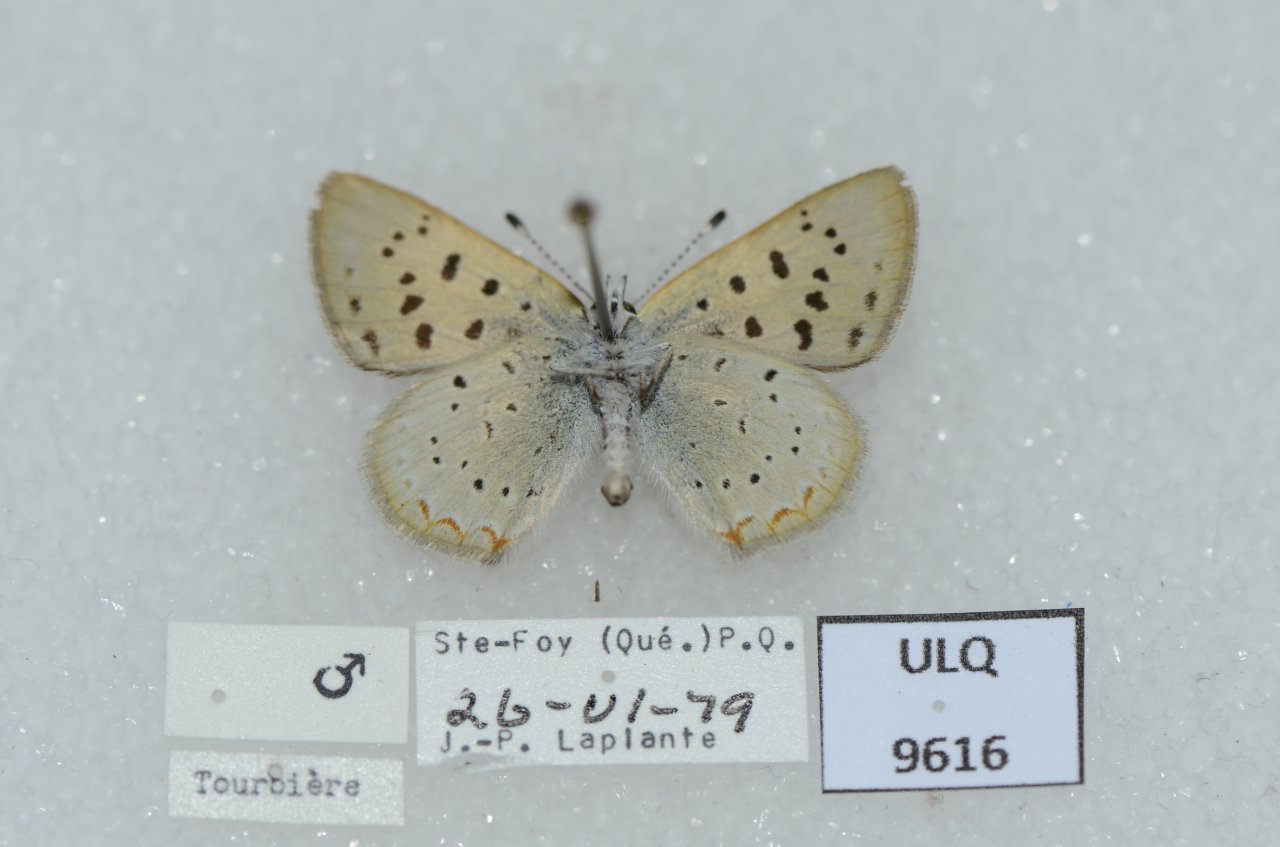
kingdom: Animalia
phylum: Arthropoda
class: Insecta
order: Lepidoptera
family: Sesiidae
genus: Sesia
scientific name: Sesia Lycaena epixanthe
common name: Bog Copper
